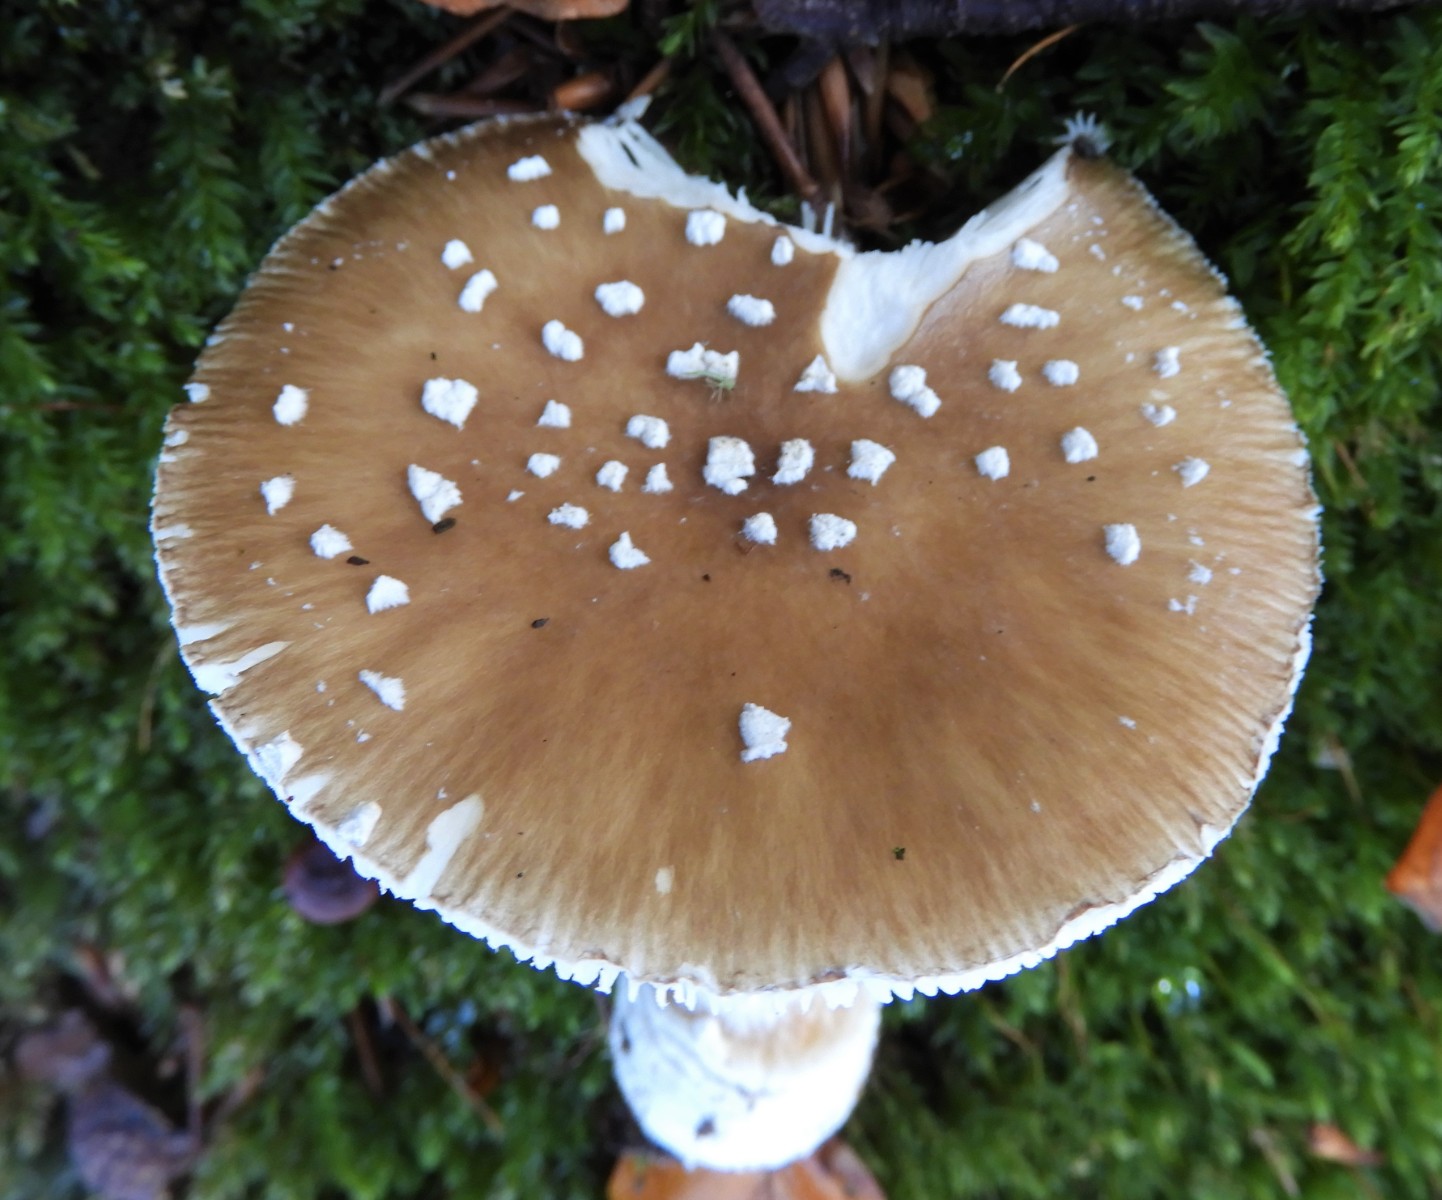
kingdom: Fungi
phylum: Basidiomycota
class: Agaricomycetes
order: Agaricales
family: Amanitaceae
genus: Amanita
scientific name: Amanita pantherina
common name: panter-fluesvamp
